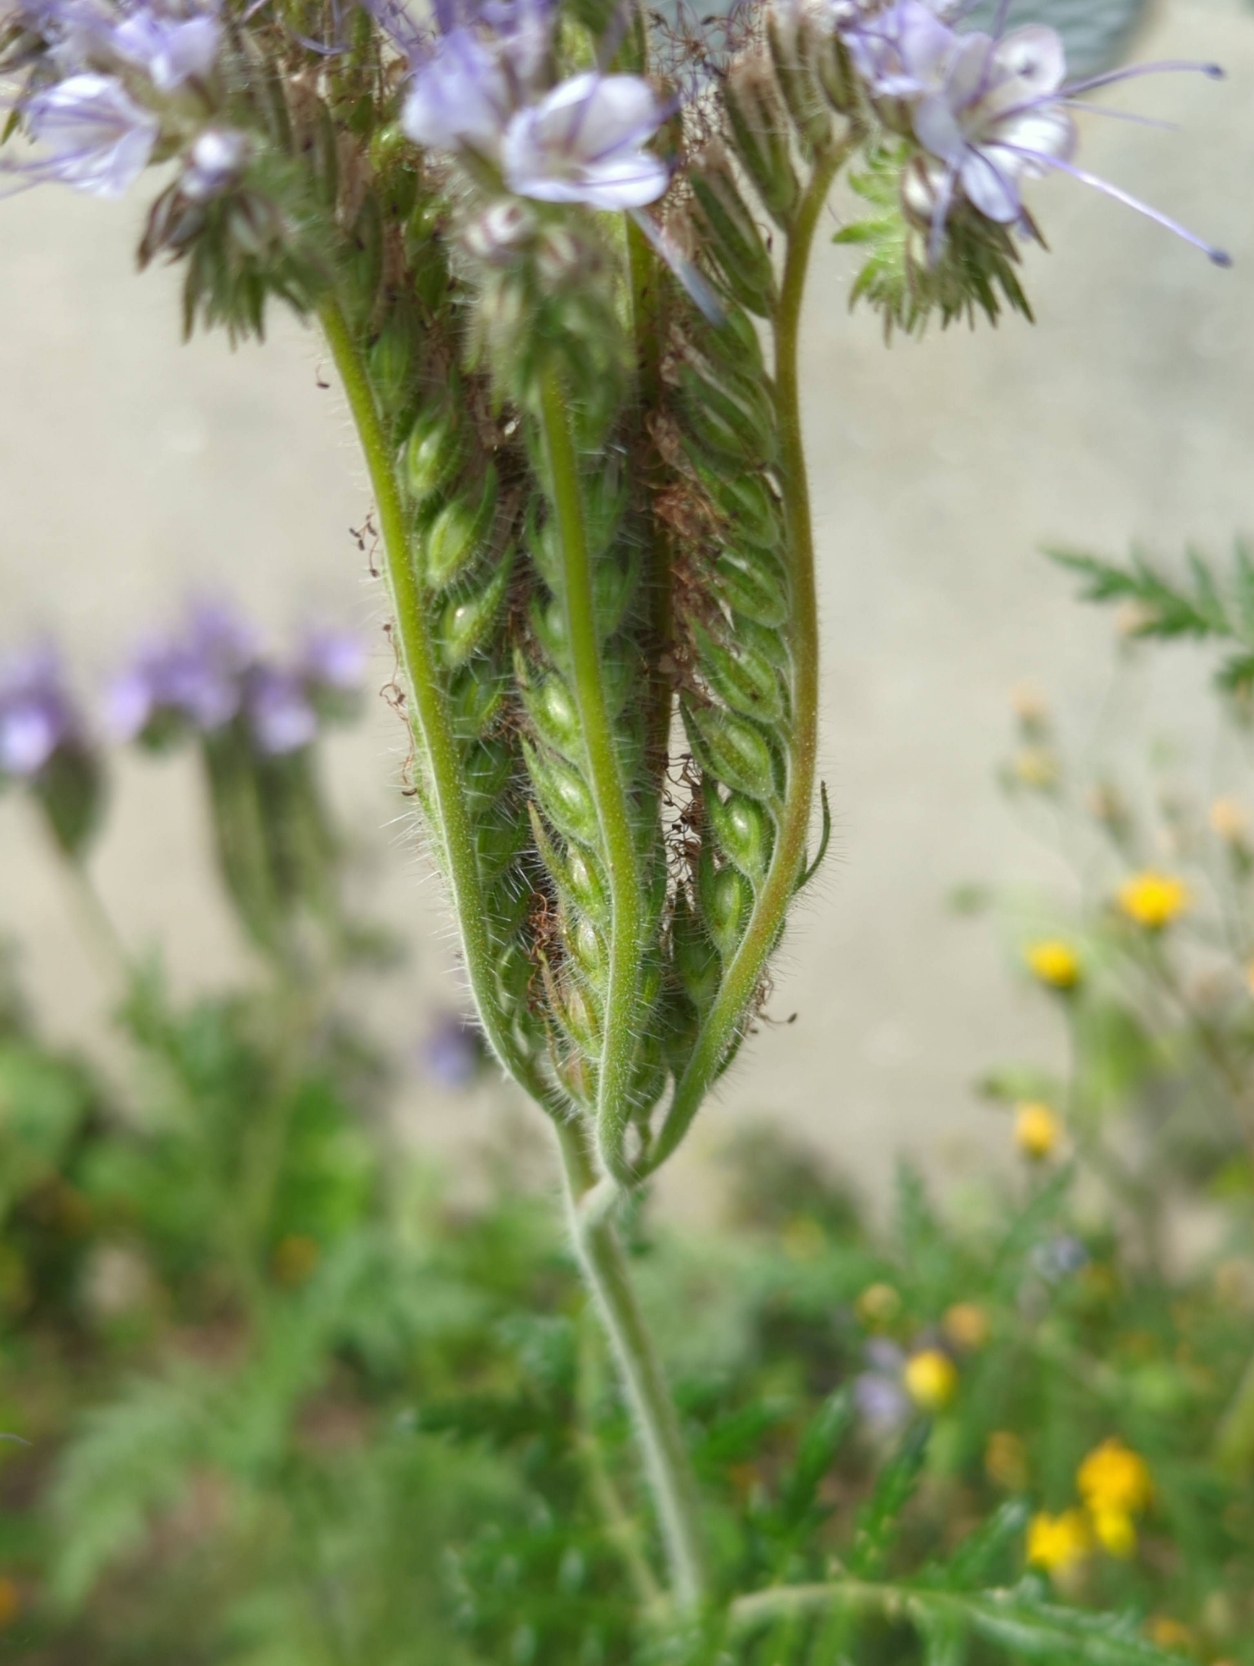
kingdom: Plantae
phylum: Tracheophyta
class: Magnoliopsida
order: Boraginales
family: Hydrophyllaceae
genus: Phacelia
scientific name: Phacelia tanacetifolia
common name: Honningurt
